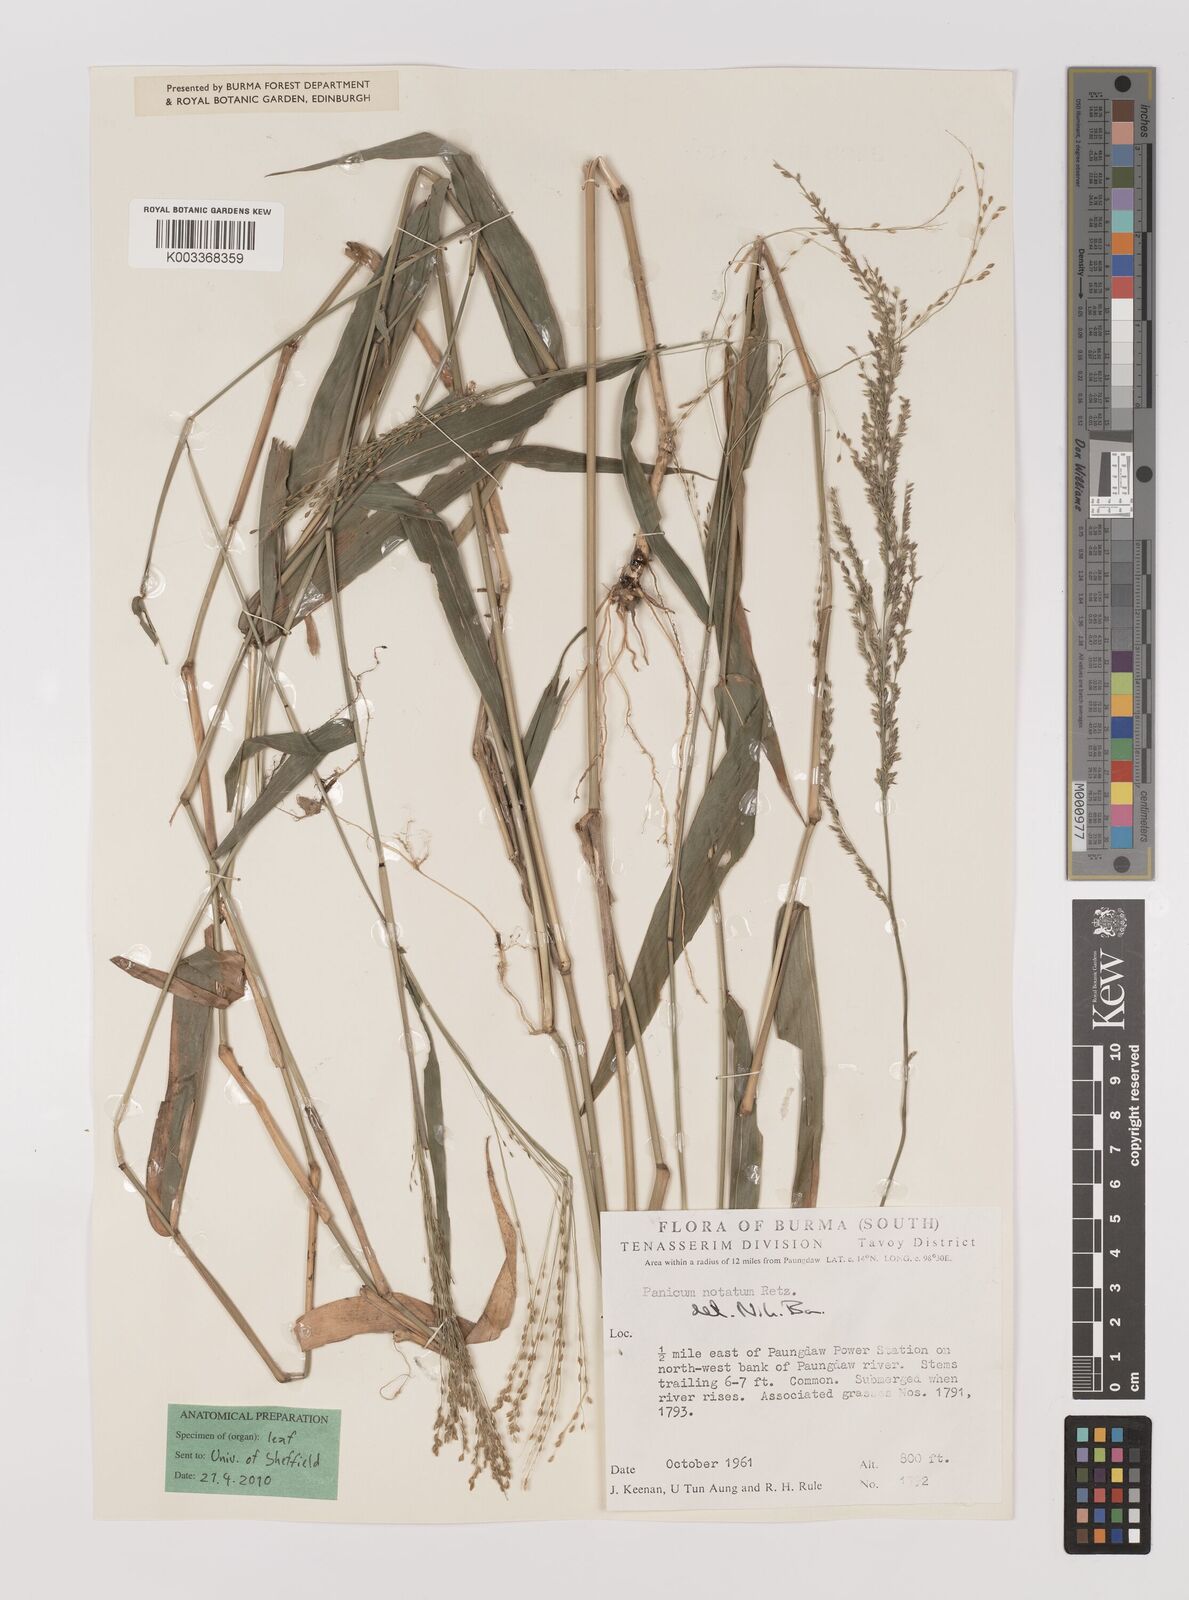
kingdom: Plantae
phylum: Tracheophyta
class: Liliopsida
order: Poales
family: Poaceae
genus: Panicum
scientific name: Panicum notatum
